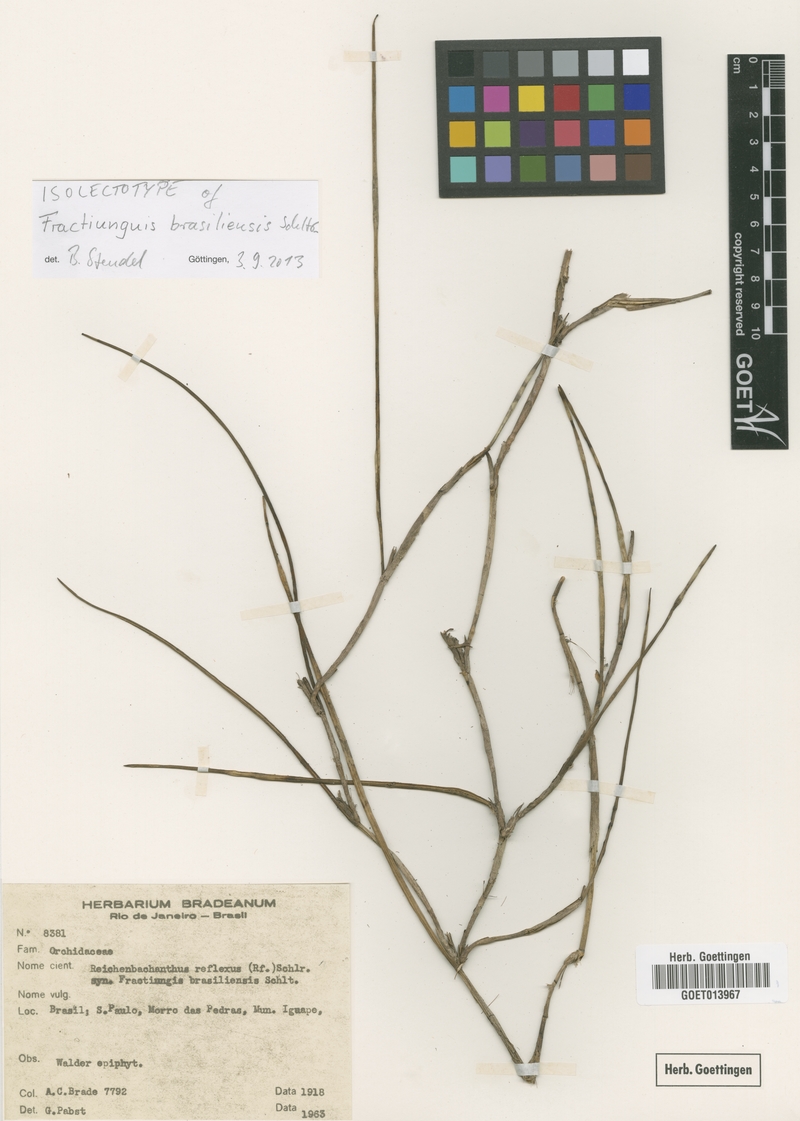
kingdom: Plantae
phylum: Tracheophyta
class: Liliopsida
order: Asparagales
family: Orchidaceae
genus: Scaphyglottis
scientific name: Scaphyglottis reflexa
